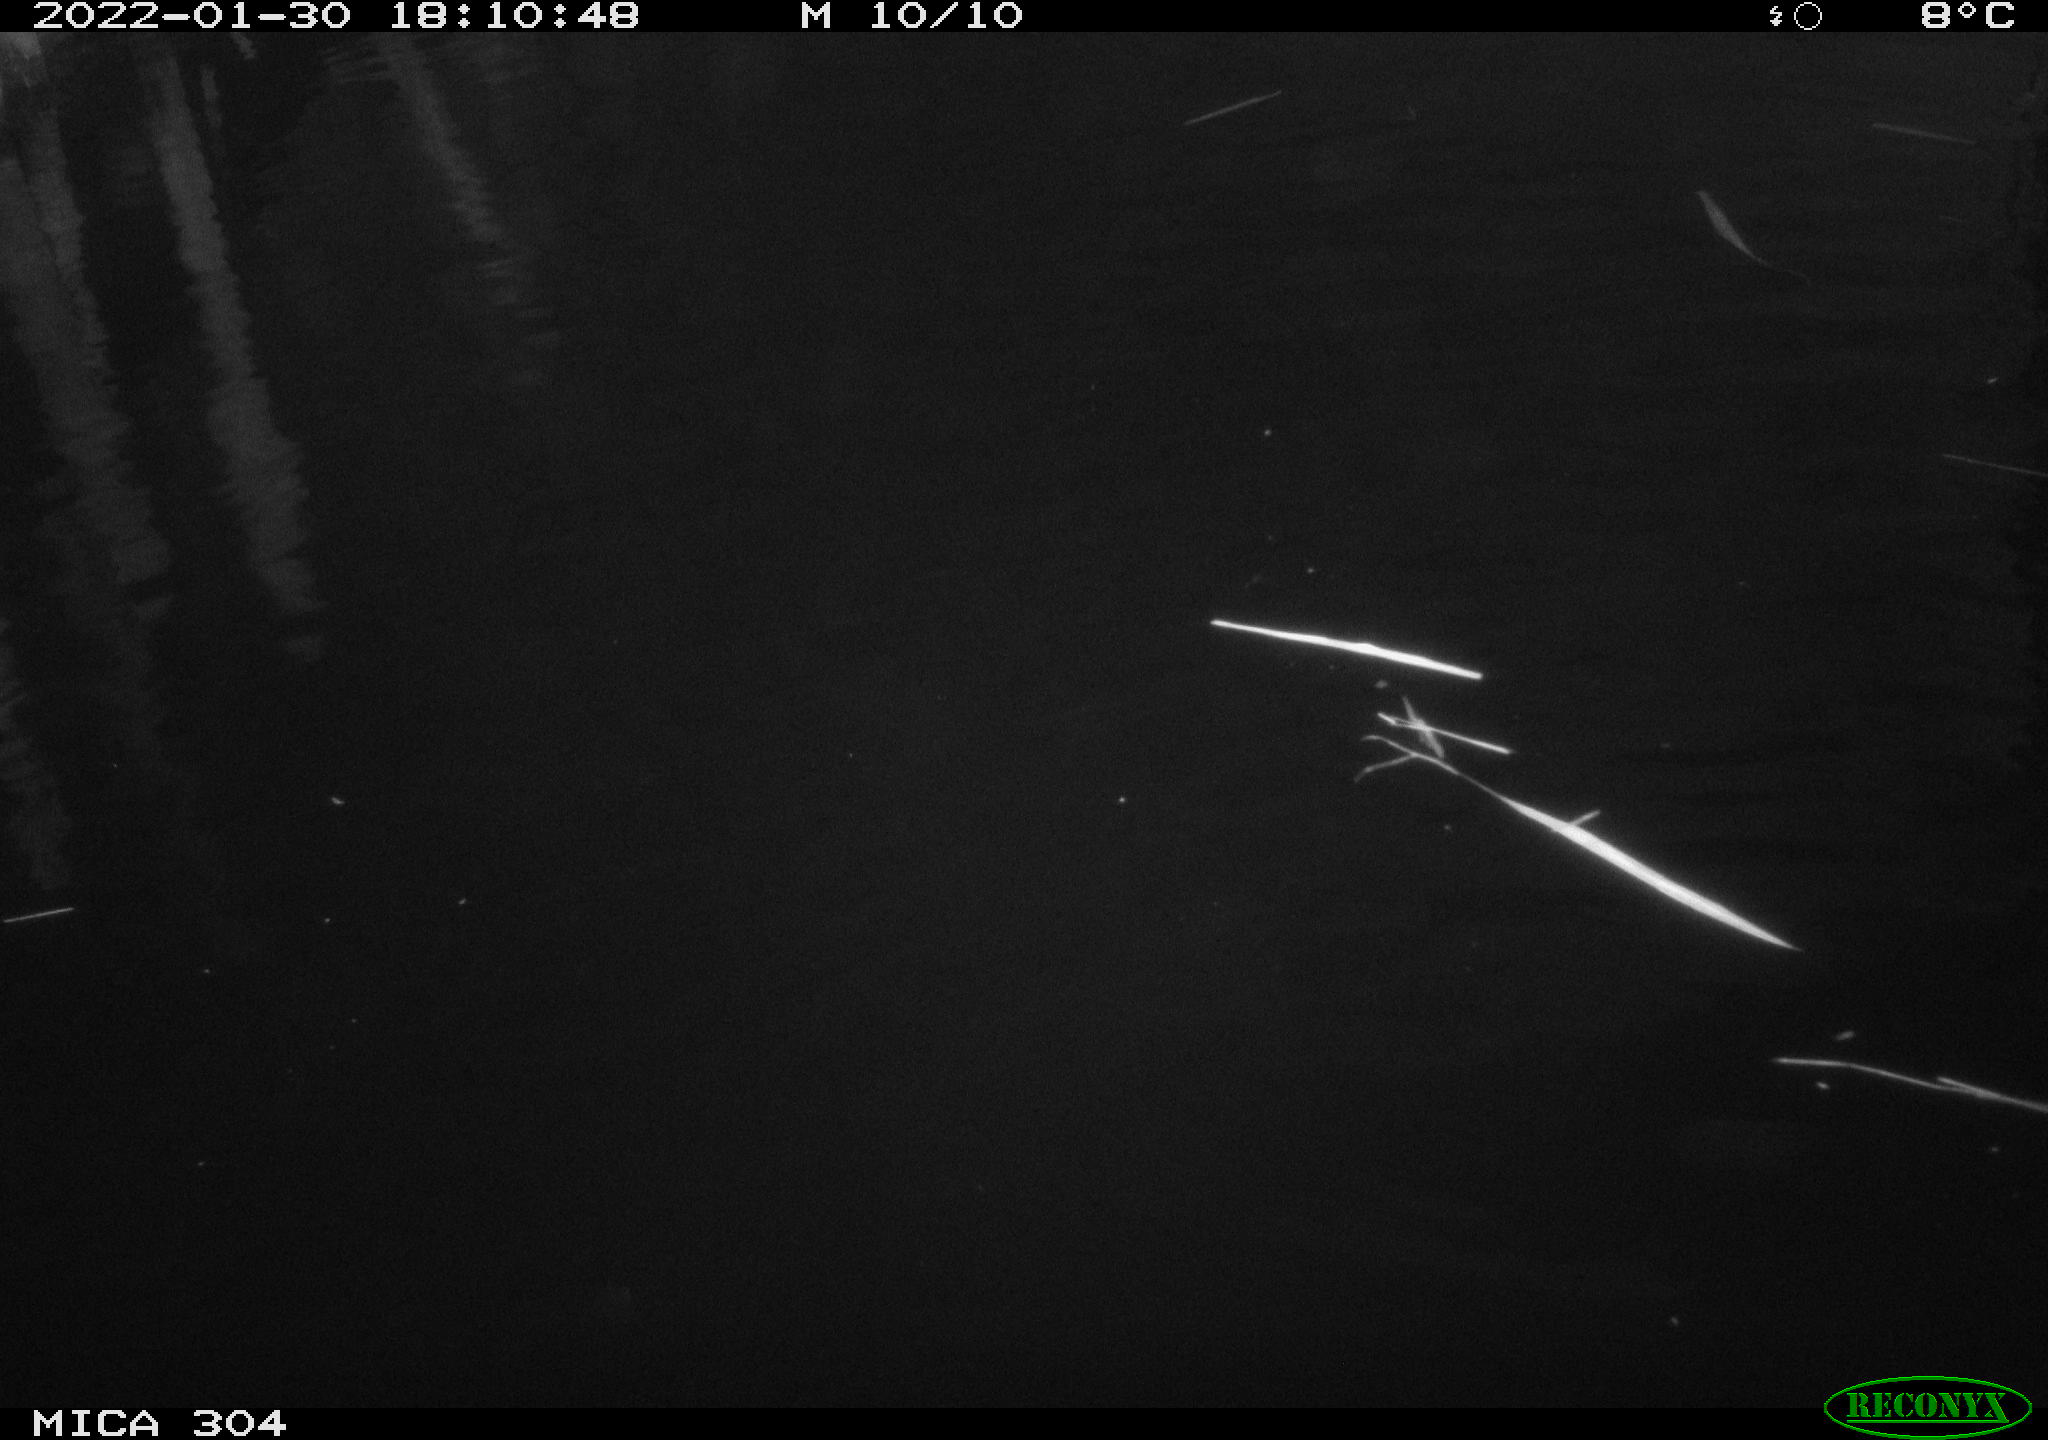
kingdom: Animalia
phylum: Chordata
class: Aves
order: Anseriformes
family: Anatidae
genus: Anas
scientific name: Anas
